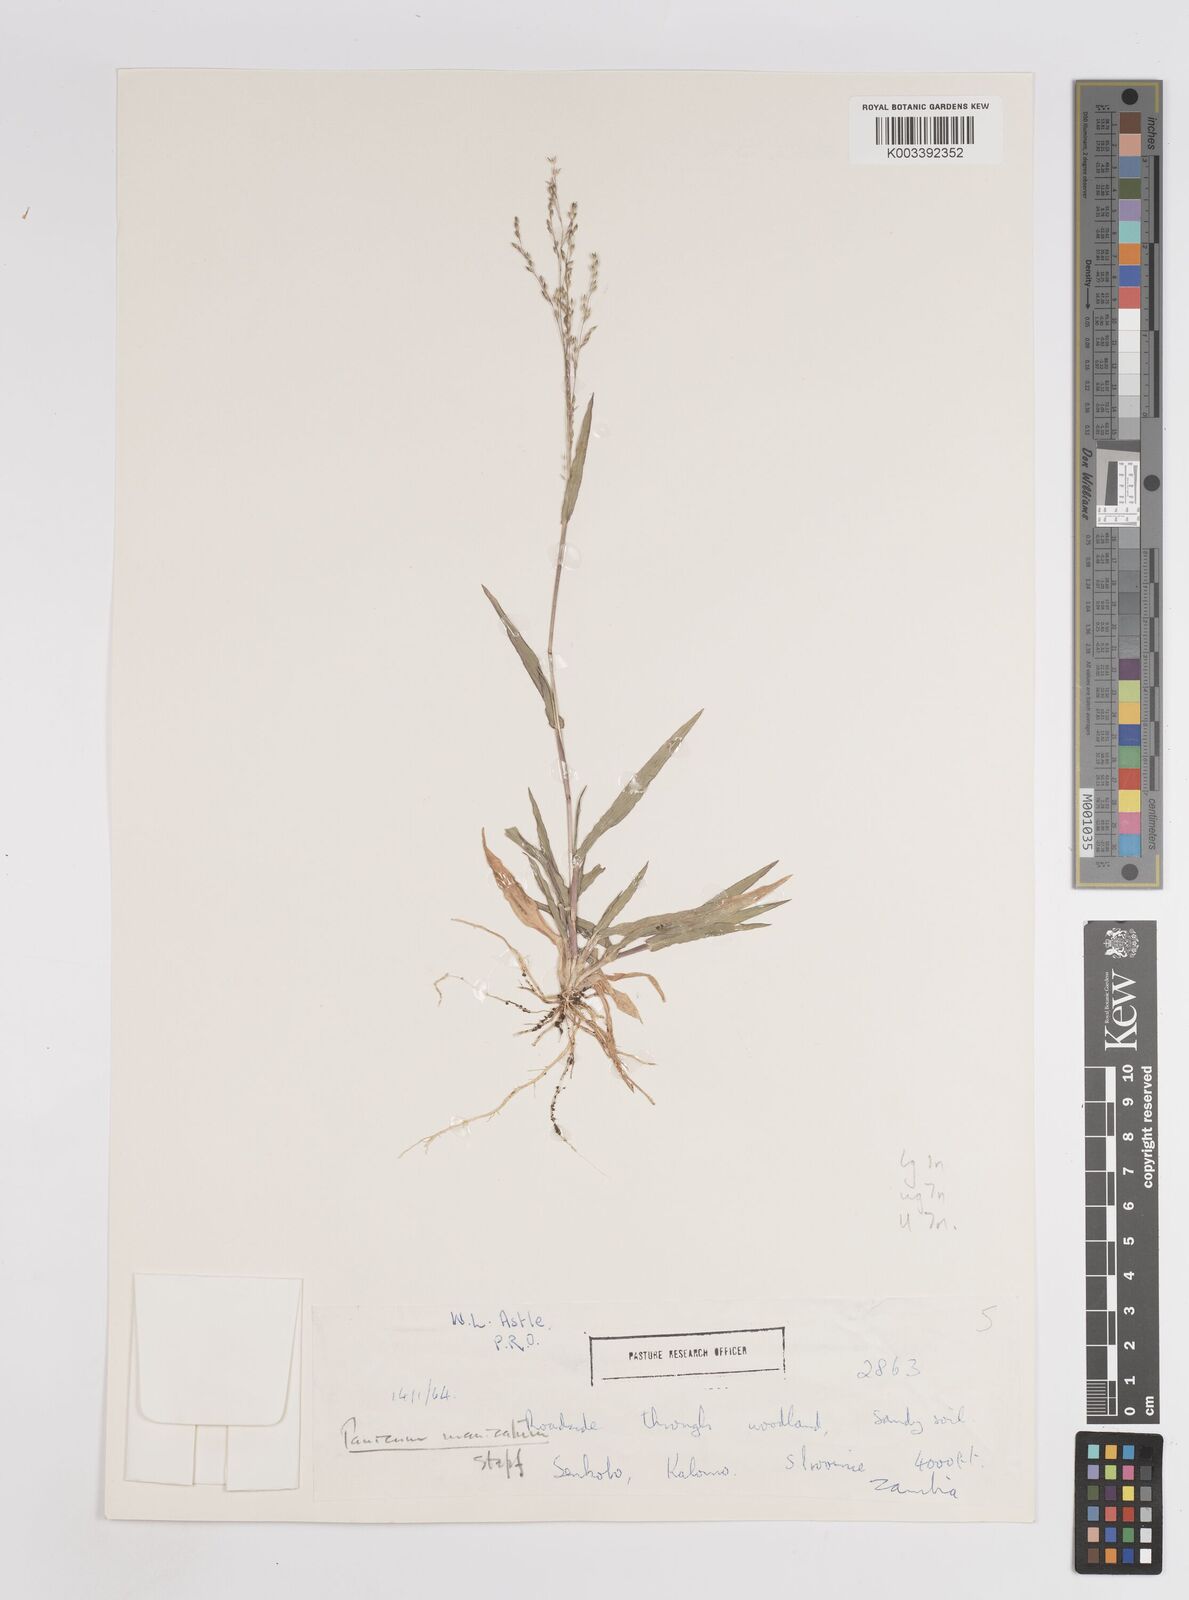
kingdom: Plantae
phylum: Tracheophyta
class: Liliopsida
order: Poales
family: Poaceae
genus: Panicum
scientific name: Panicum zambesiense
